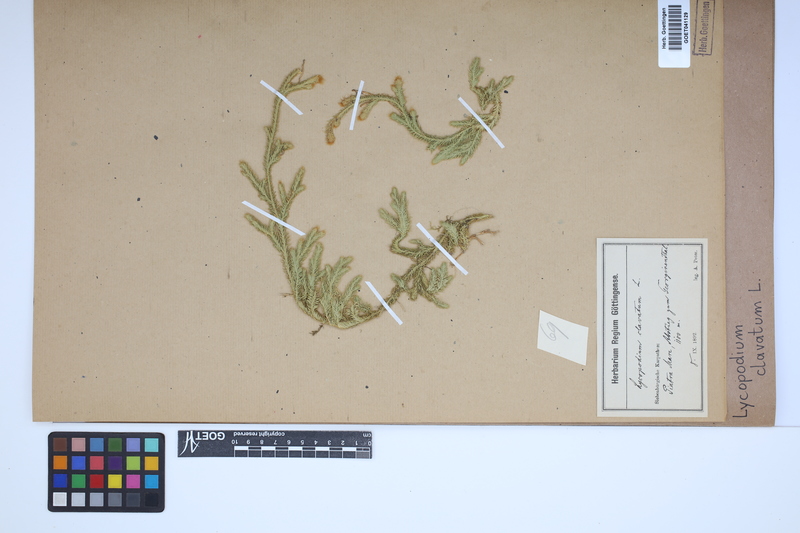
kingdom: Plantae
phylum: Tracheophyta
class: Lycopodiopsida
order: Lycopodiales
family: Lycopodiaceae
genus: Lycopodium
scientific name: Lycopodium clavatum
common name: Stag's-horn clubmoss
